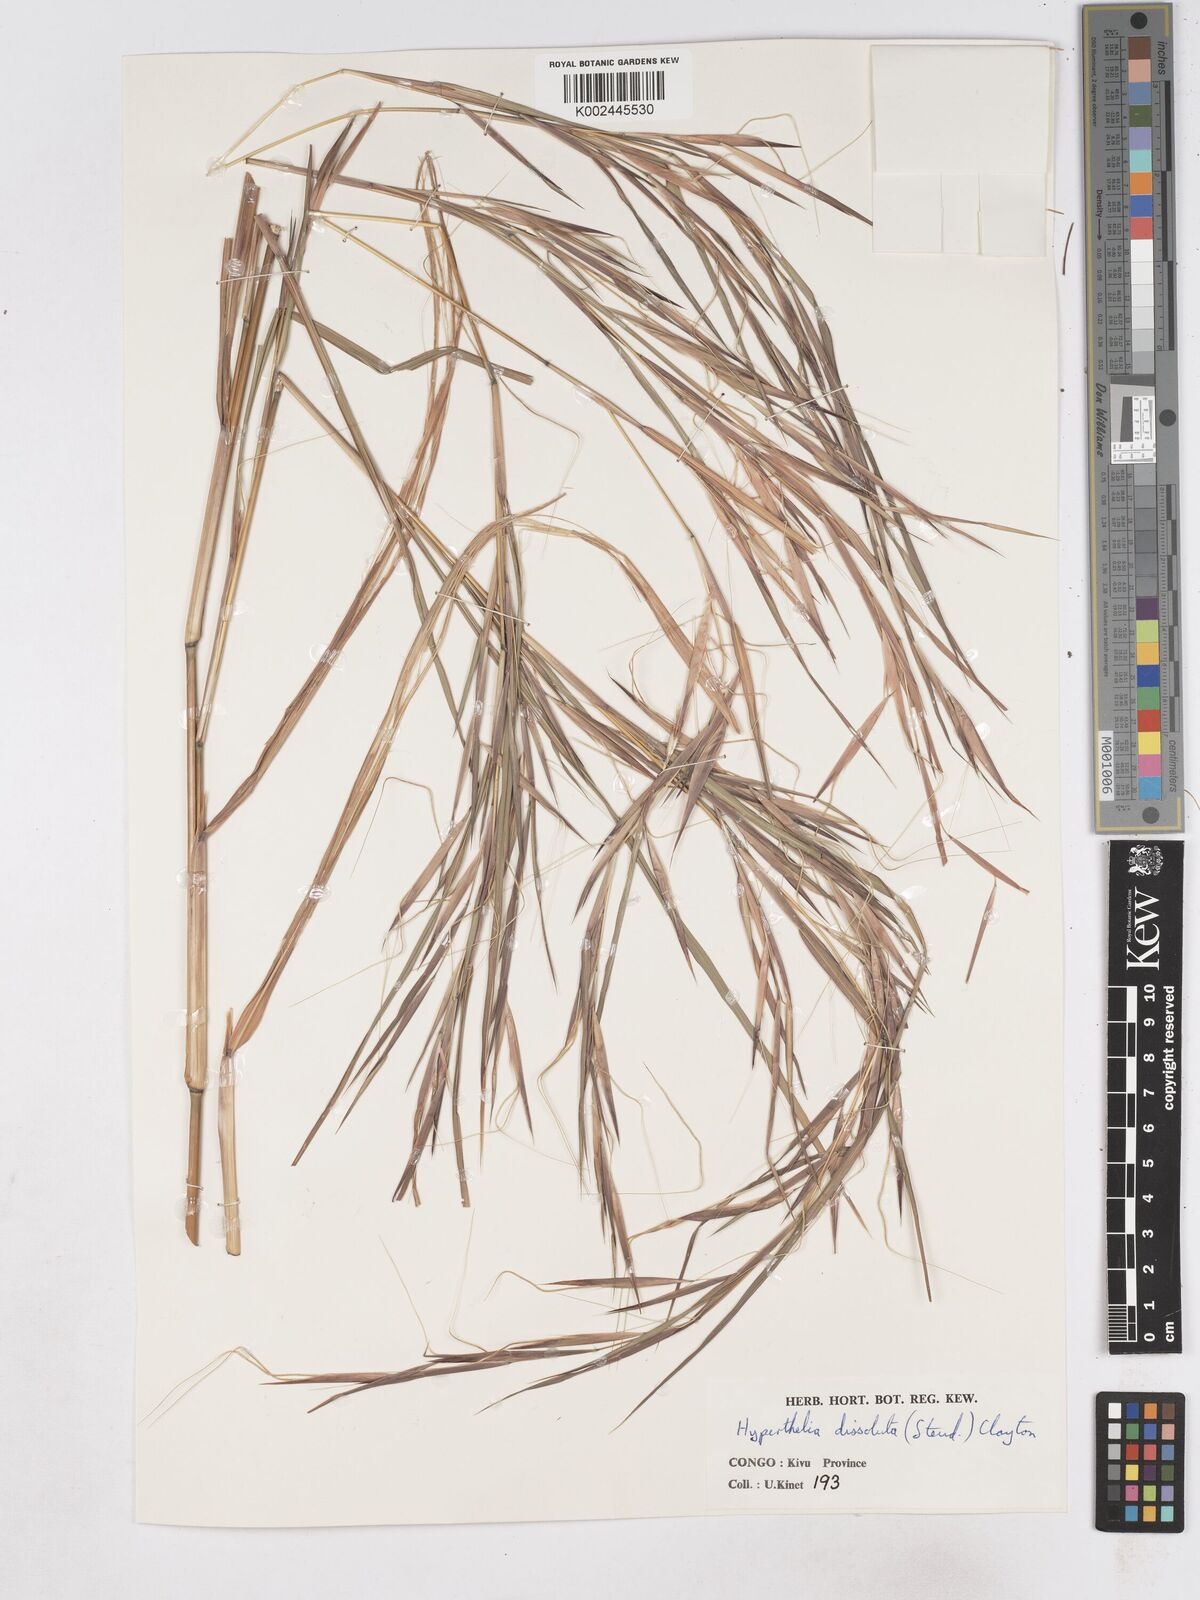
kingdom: Plantae
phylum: Tracheophyta
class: Liliopsida
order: Poales
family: Poaceae
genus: Hyperthelia
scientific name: Hyperthelia dissoluta
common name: Yellow thatching grass
